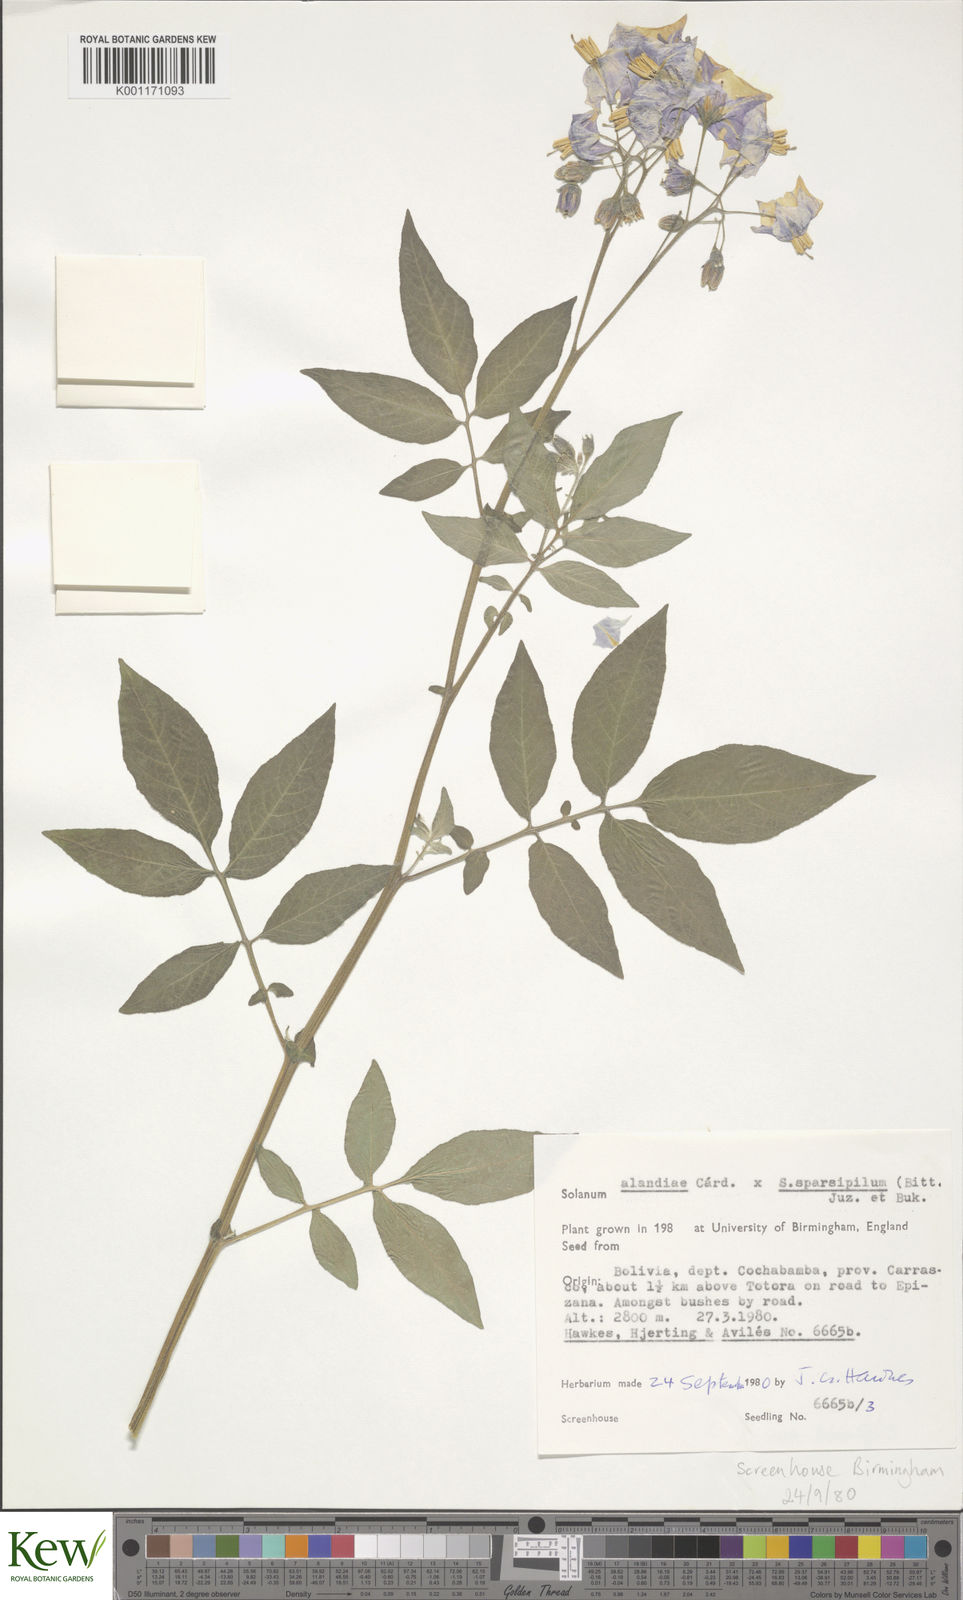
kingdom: Plantae
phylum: Tracheophyta
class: Magnoliopsida
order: Solanales
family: Solanaceae
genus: Solanum
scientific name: Solanum
